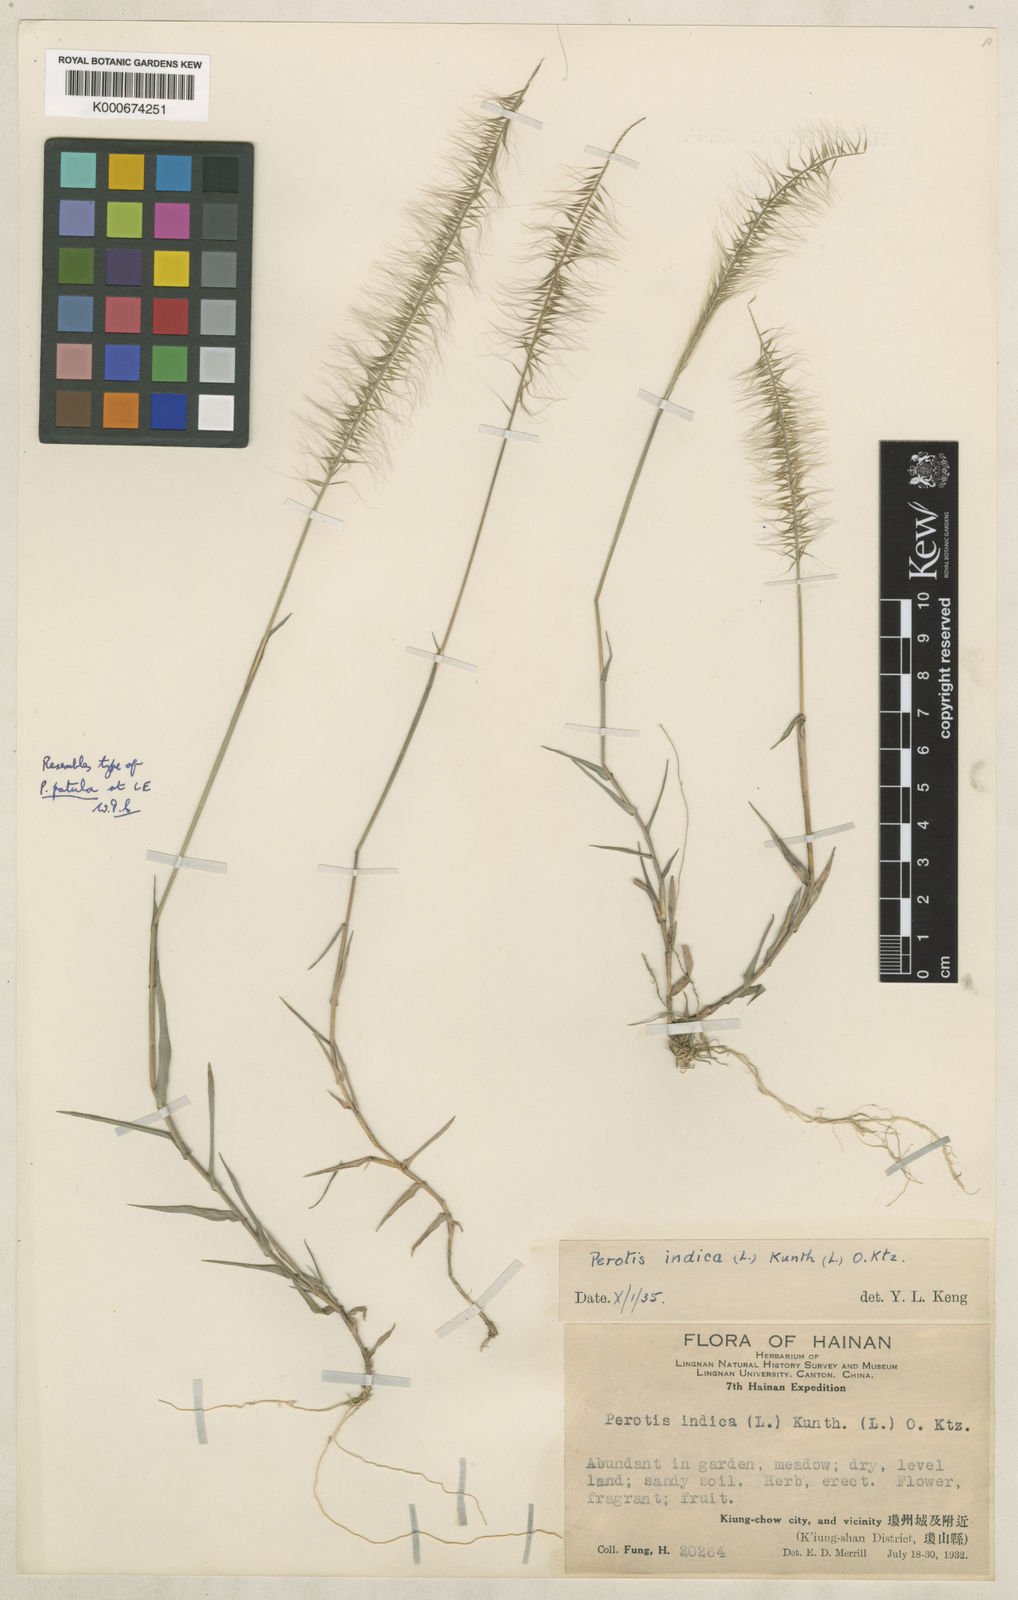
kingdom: Plantae
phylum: Tracheophyta
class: Liliopsida
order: Poales
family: Poaceae
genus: Perotis
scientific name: Perotis rara
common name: Comet grass
